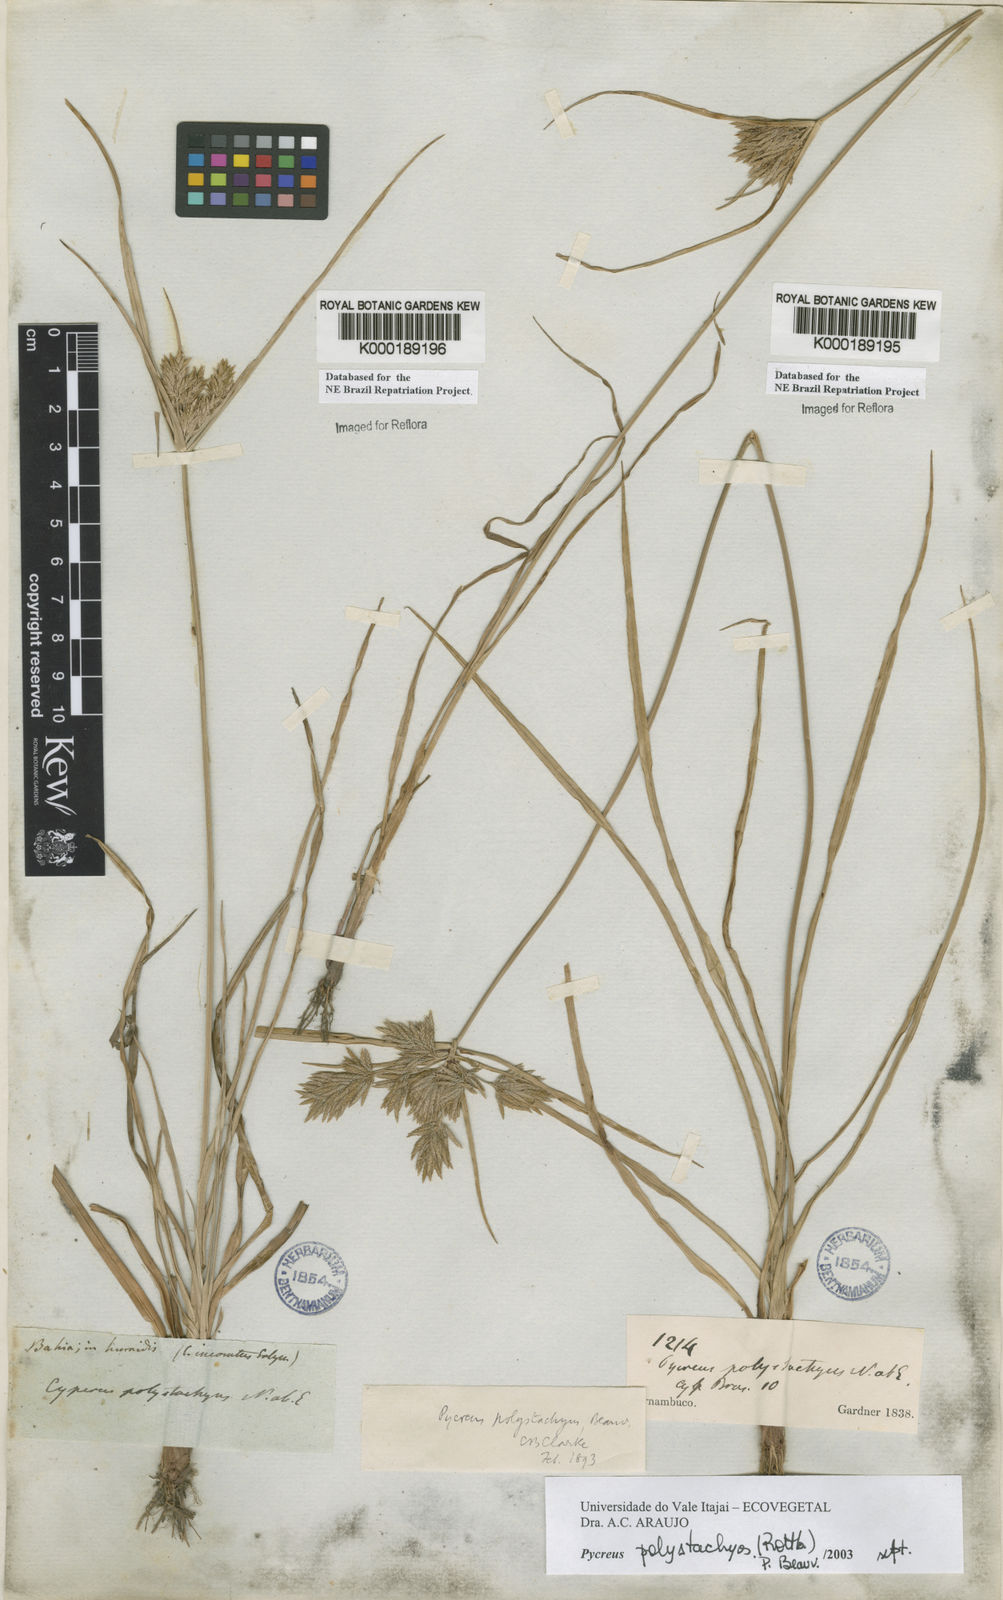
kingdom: Plantae
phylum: Tracheophyta
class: Liliopsida
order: Poales
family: Cyperaceae
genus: Cyperus
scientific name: Cyperus polystachyos
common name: Bunchy flat sedge
